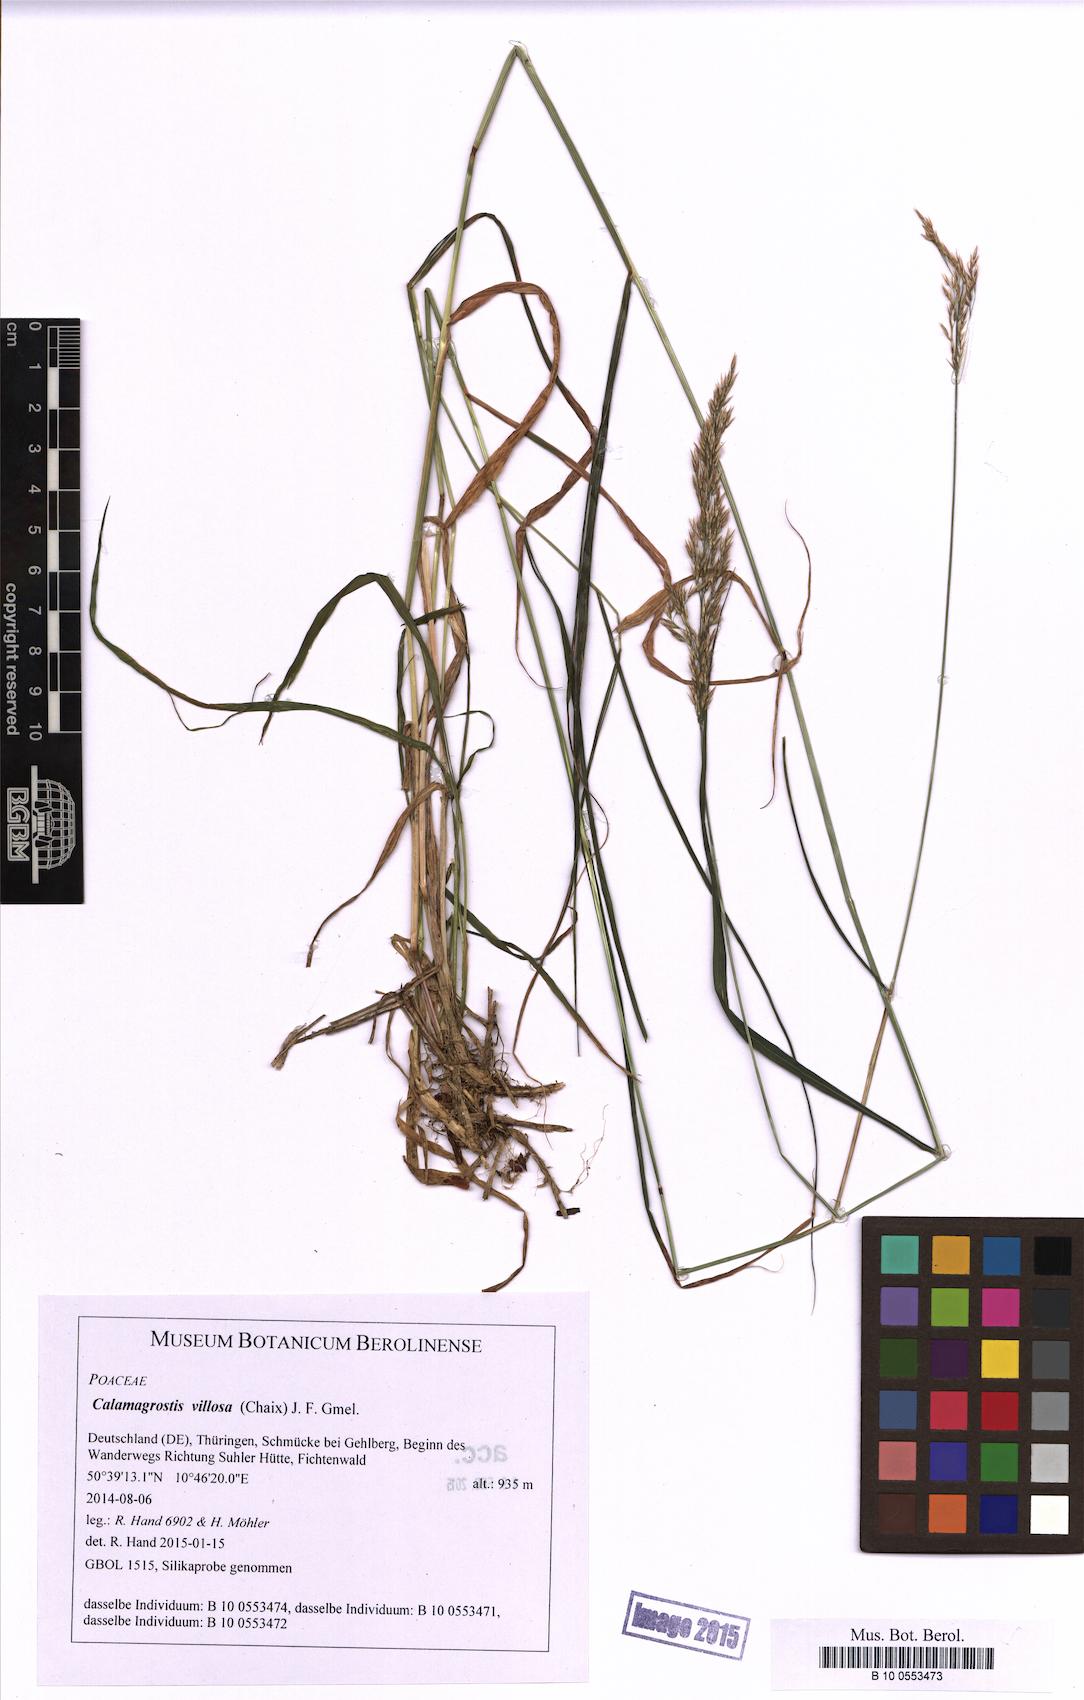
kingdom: Plantae
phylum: Tracheophyta
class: Liliopsida
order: Poales
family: Poaceae
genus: Calamagrostis
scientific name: Calamagrostis villosa
